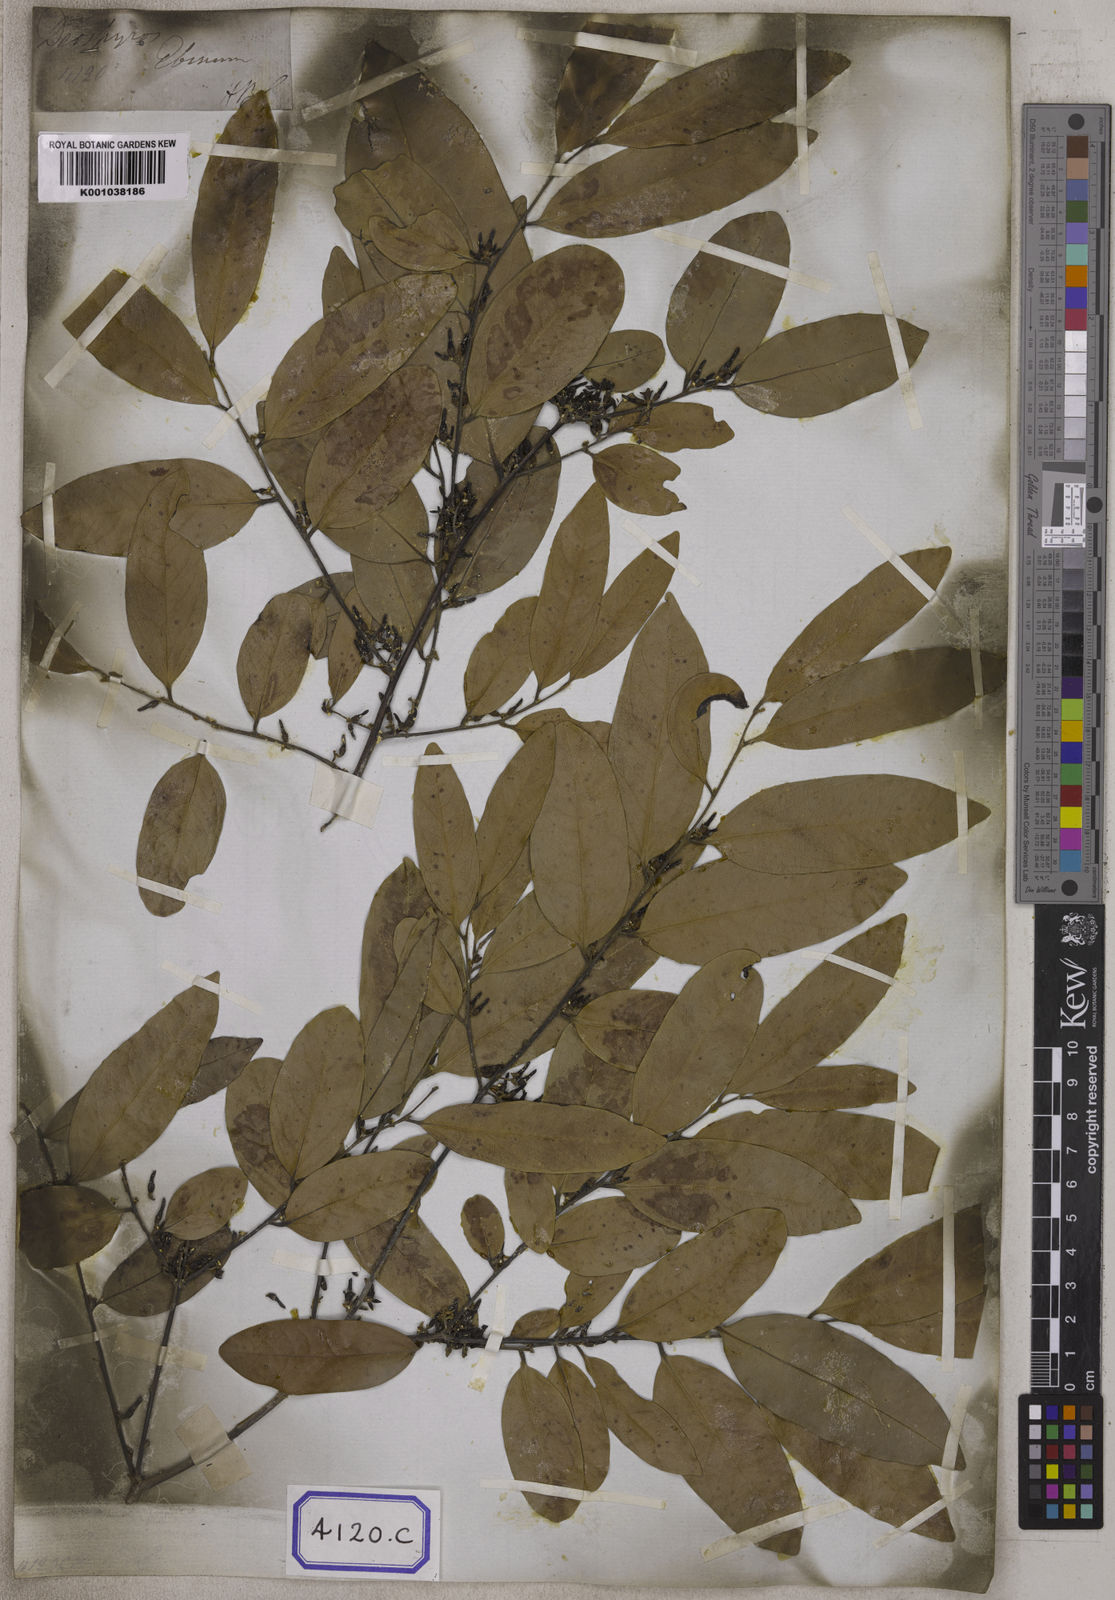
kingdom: Plantae
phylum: Tracheophyta
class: Magnoliopsida
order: Ericales
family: Ebenaceae
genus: Diospyros
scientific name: Diospyros
